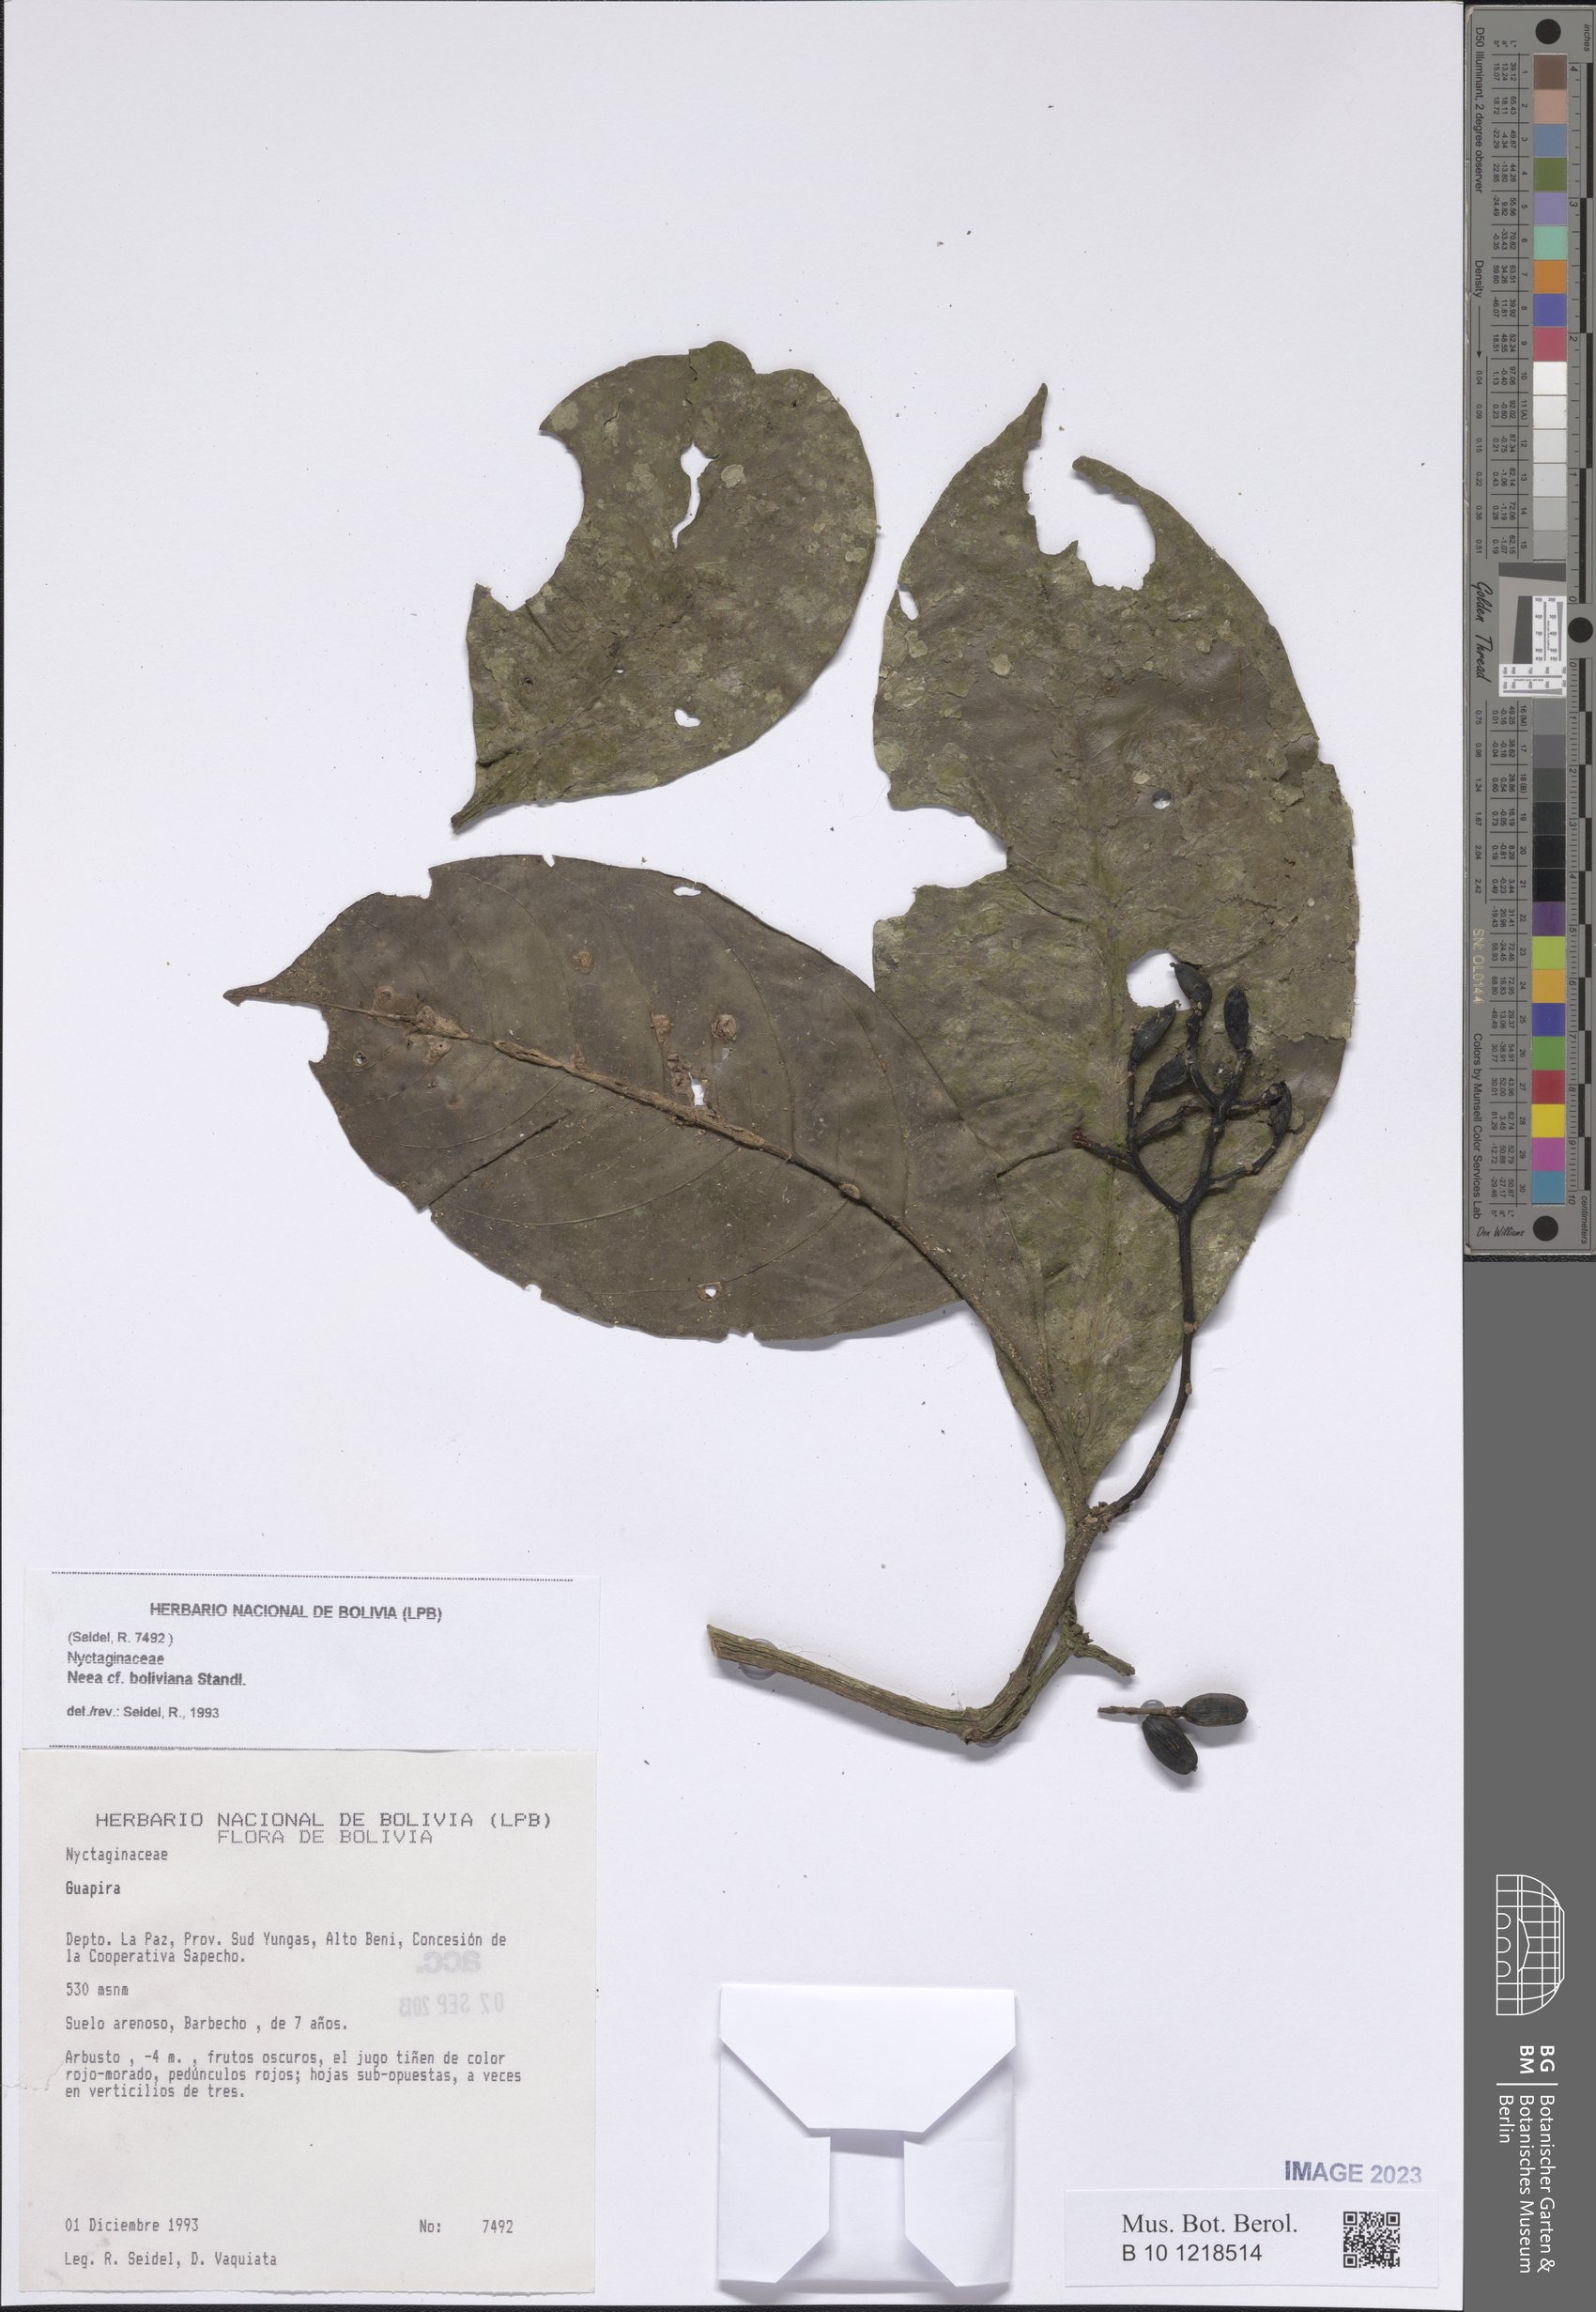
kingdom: Plantae
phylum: Tracheophyta
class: Magnoliopsida
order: Caryophyllales
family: Nyctaginaceae
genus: Neea
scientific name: Neea boliviana
